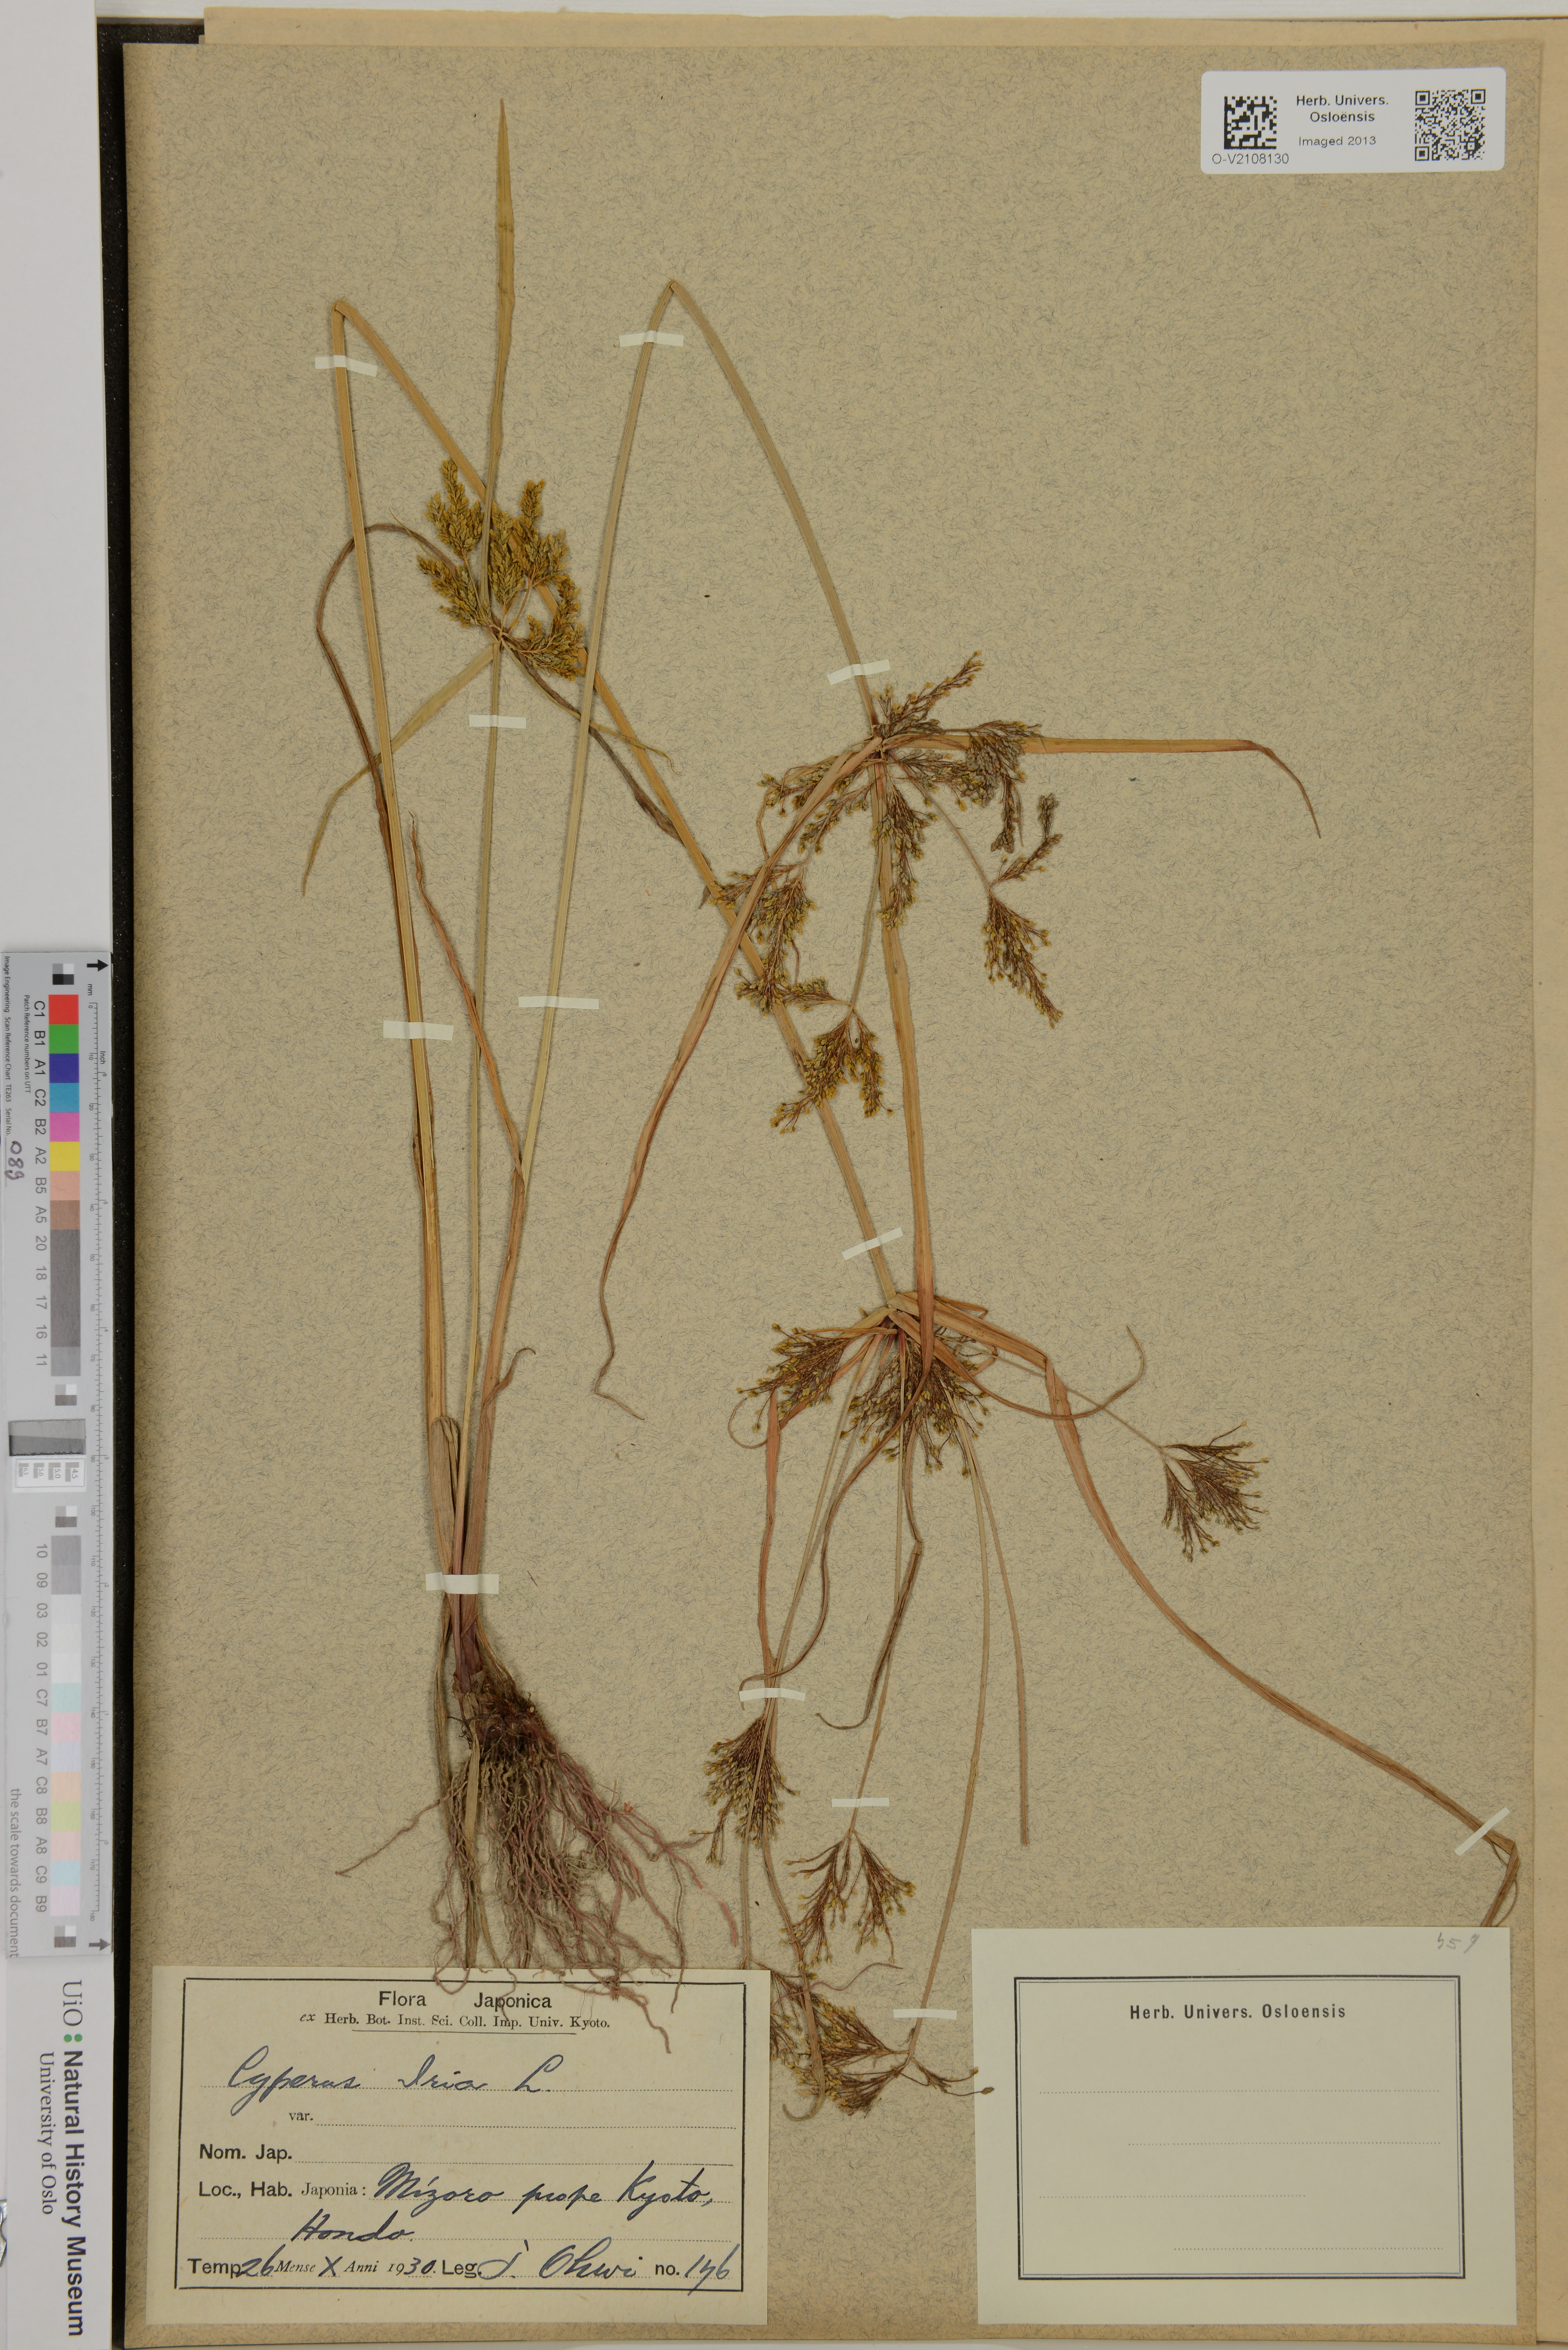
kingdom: Plantae
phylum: Tracheophyta
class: Liliopsida
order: Poales
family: Cyperaceae
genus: Cyperus
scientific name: Cyperus iria
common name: Ricefield flatsedge
